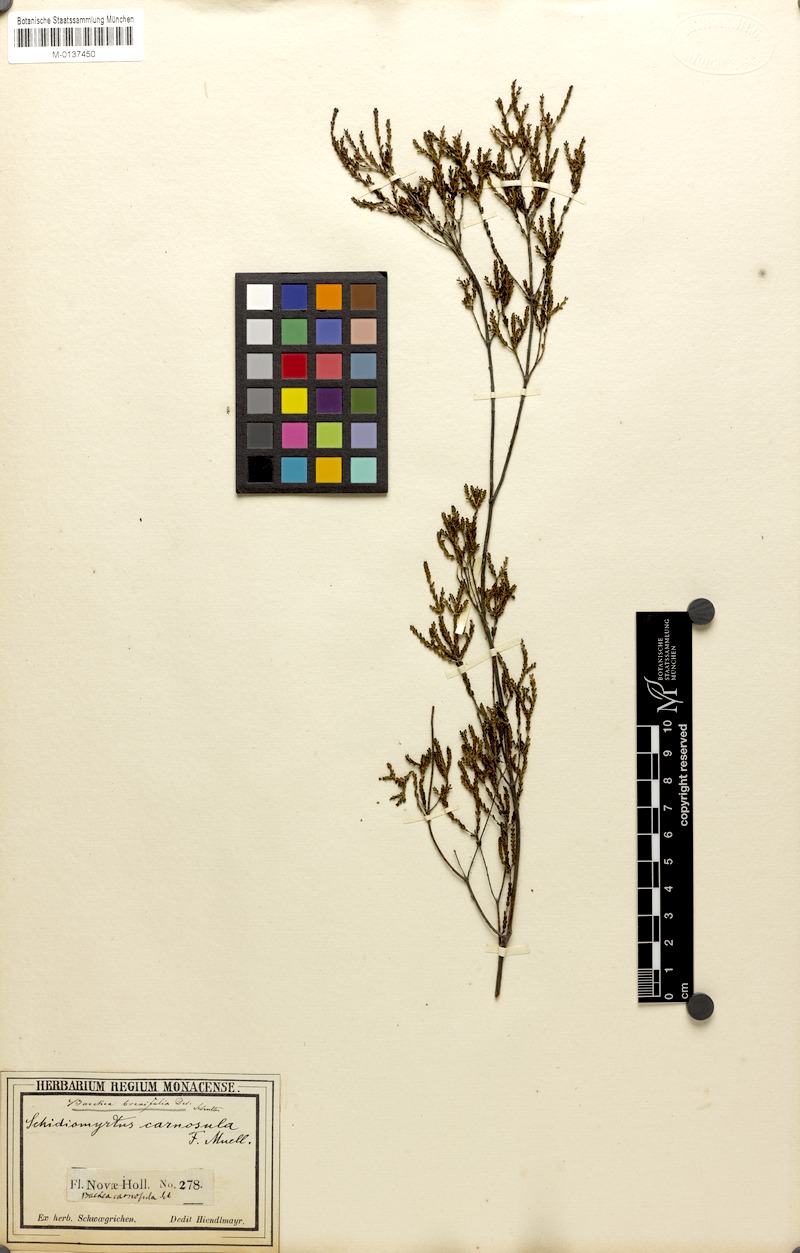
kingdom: Plantae
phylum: Tracheophyta
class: Magnoliopsida
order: Myrtales
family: Myrtaceae
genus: Baeckea
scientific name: Baeckea brevifolia
